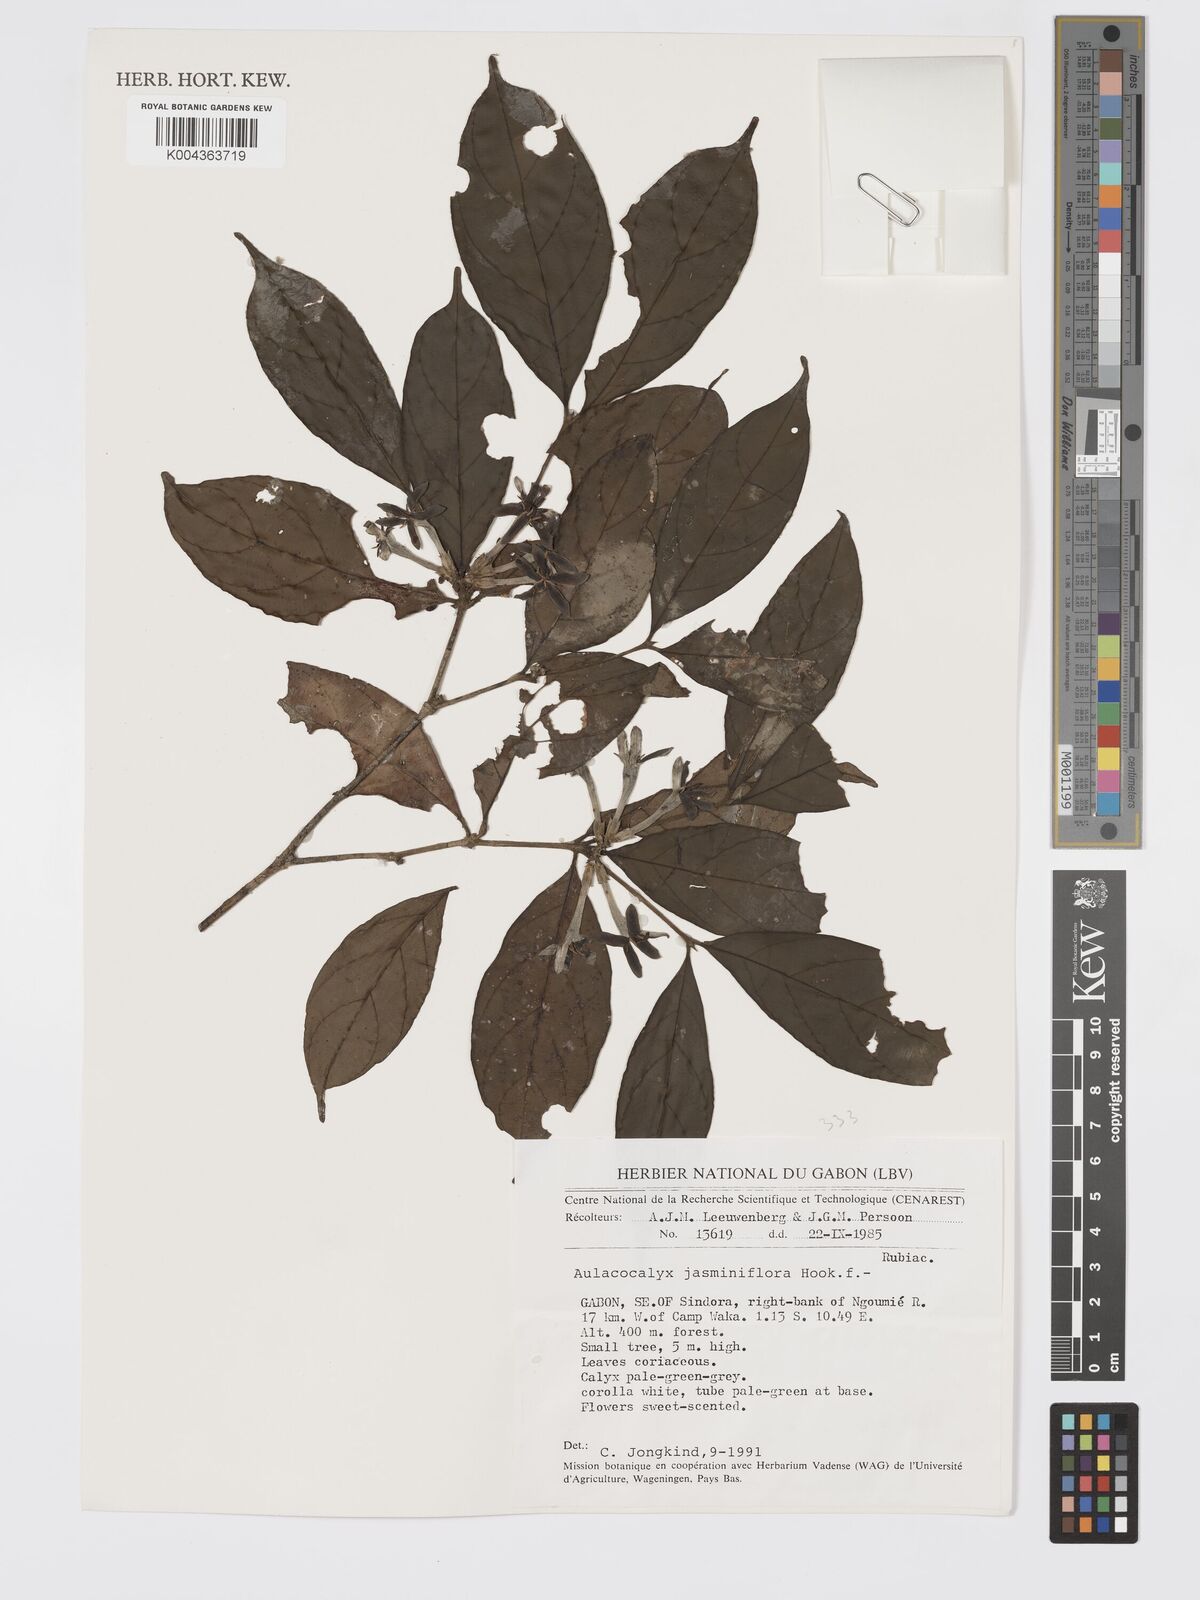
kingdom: Plantae
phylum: Tracheophyta
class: Magnoliopsida
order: Gentianales
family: Rubiaceae
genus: Aulacocalyx
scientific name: Aulacocalyx jasminiflora
